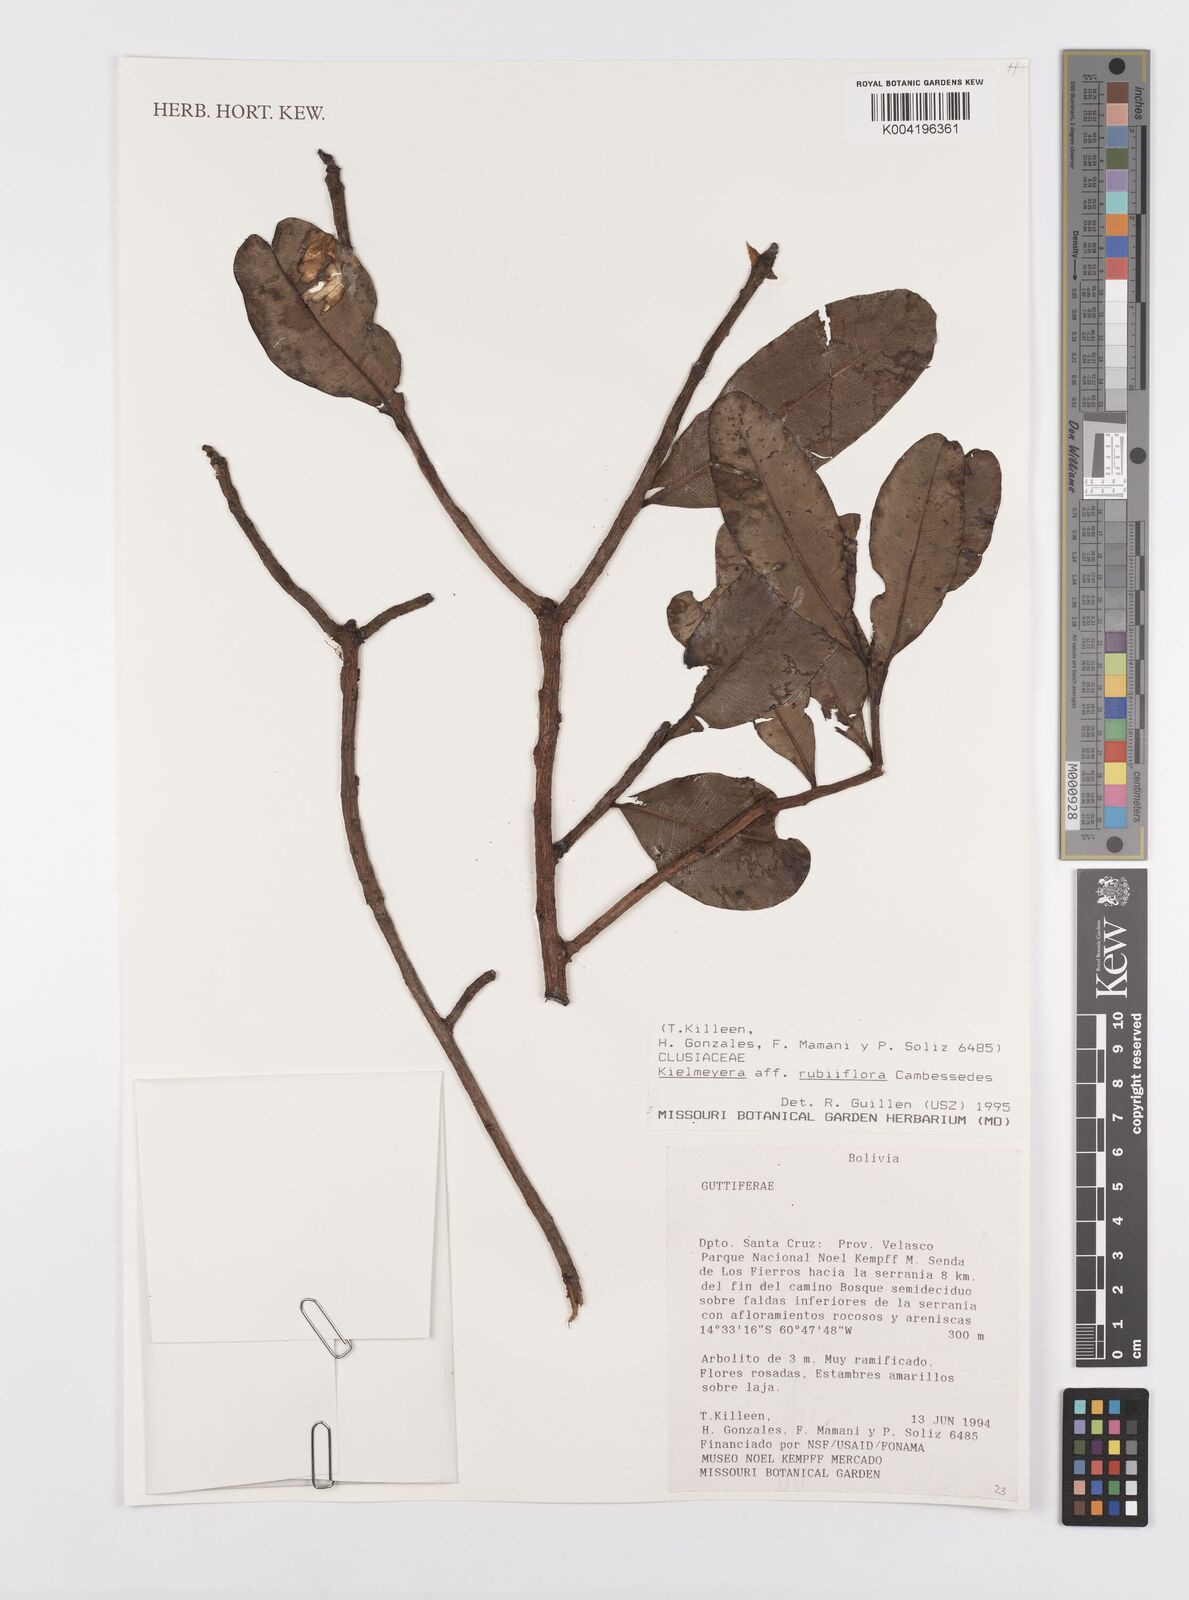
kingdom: Plantae
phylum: Tracheophyta
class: Magnoliopsida
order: Malpighiales
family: Calophyllaceae
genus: Kielmeyera
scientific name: Kielmeyera rubriflora
